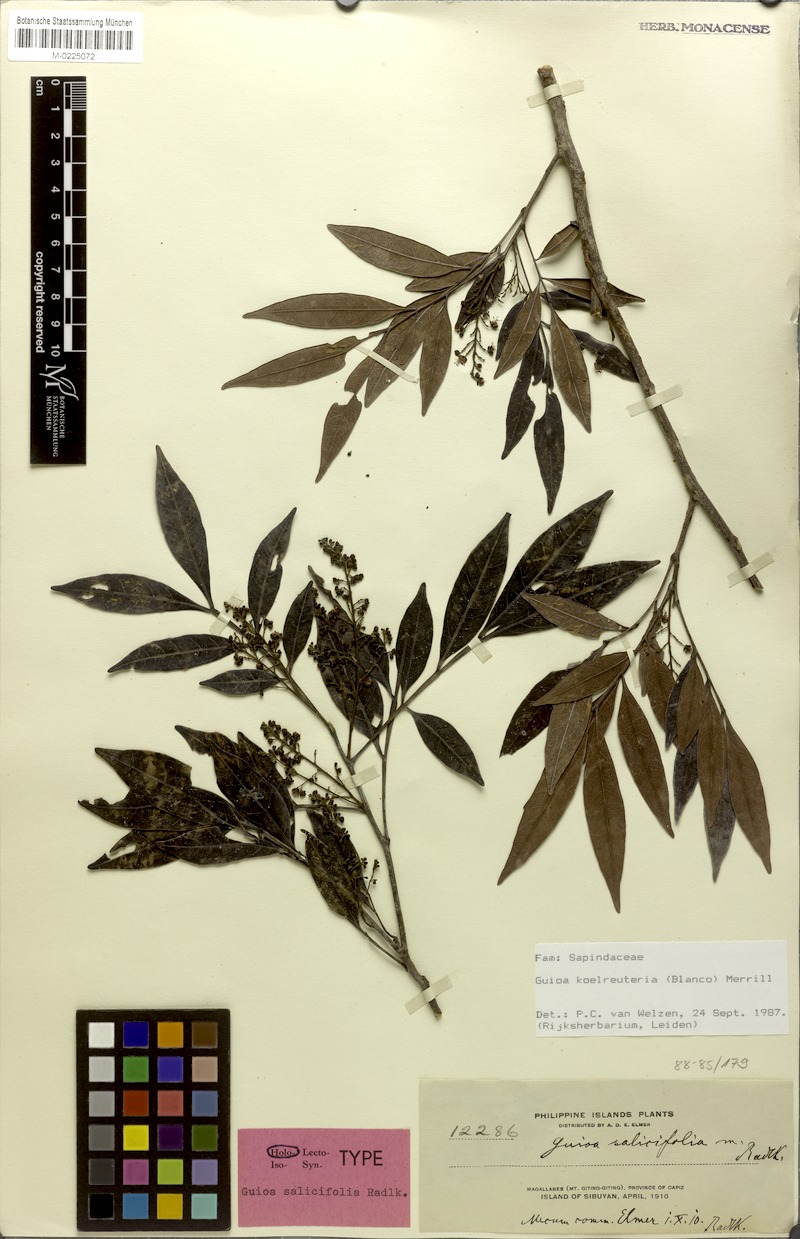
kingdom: Plantae
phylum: Tracheophyta
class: Magnoliopsida
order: Sapindales
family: Sapindaceae
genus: Guioa
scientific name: Guioa koelreuteria
